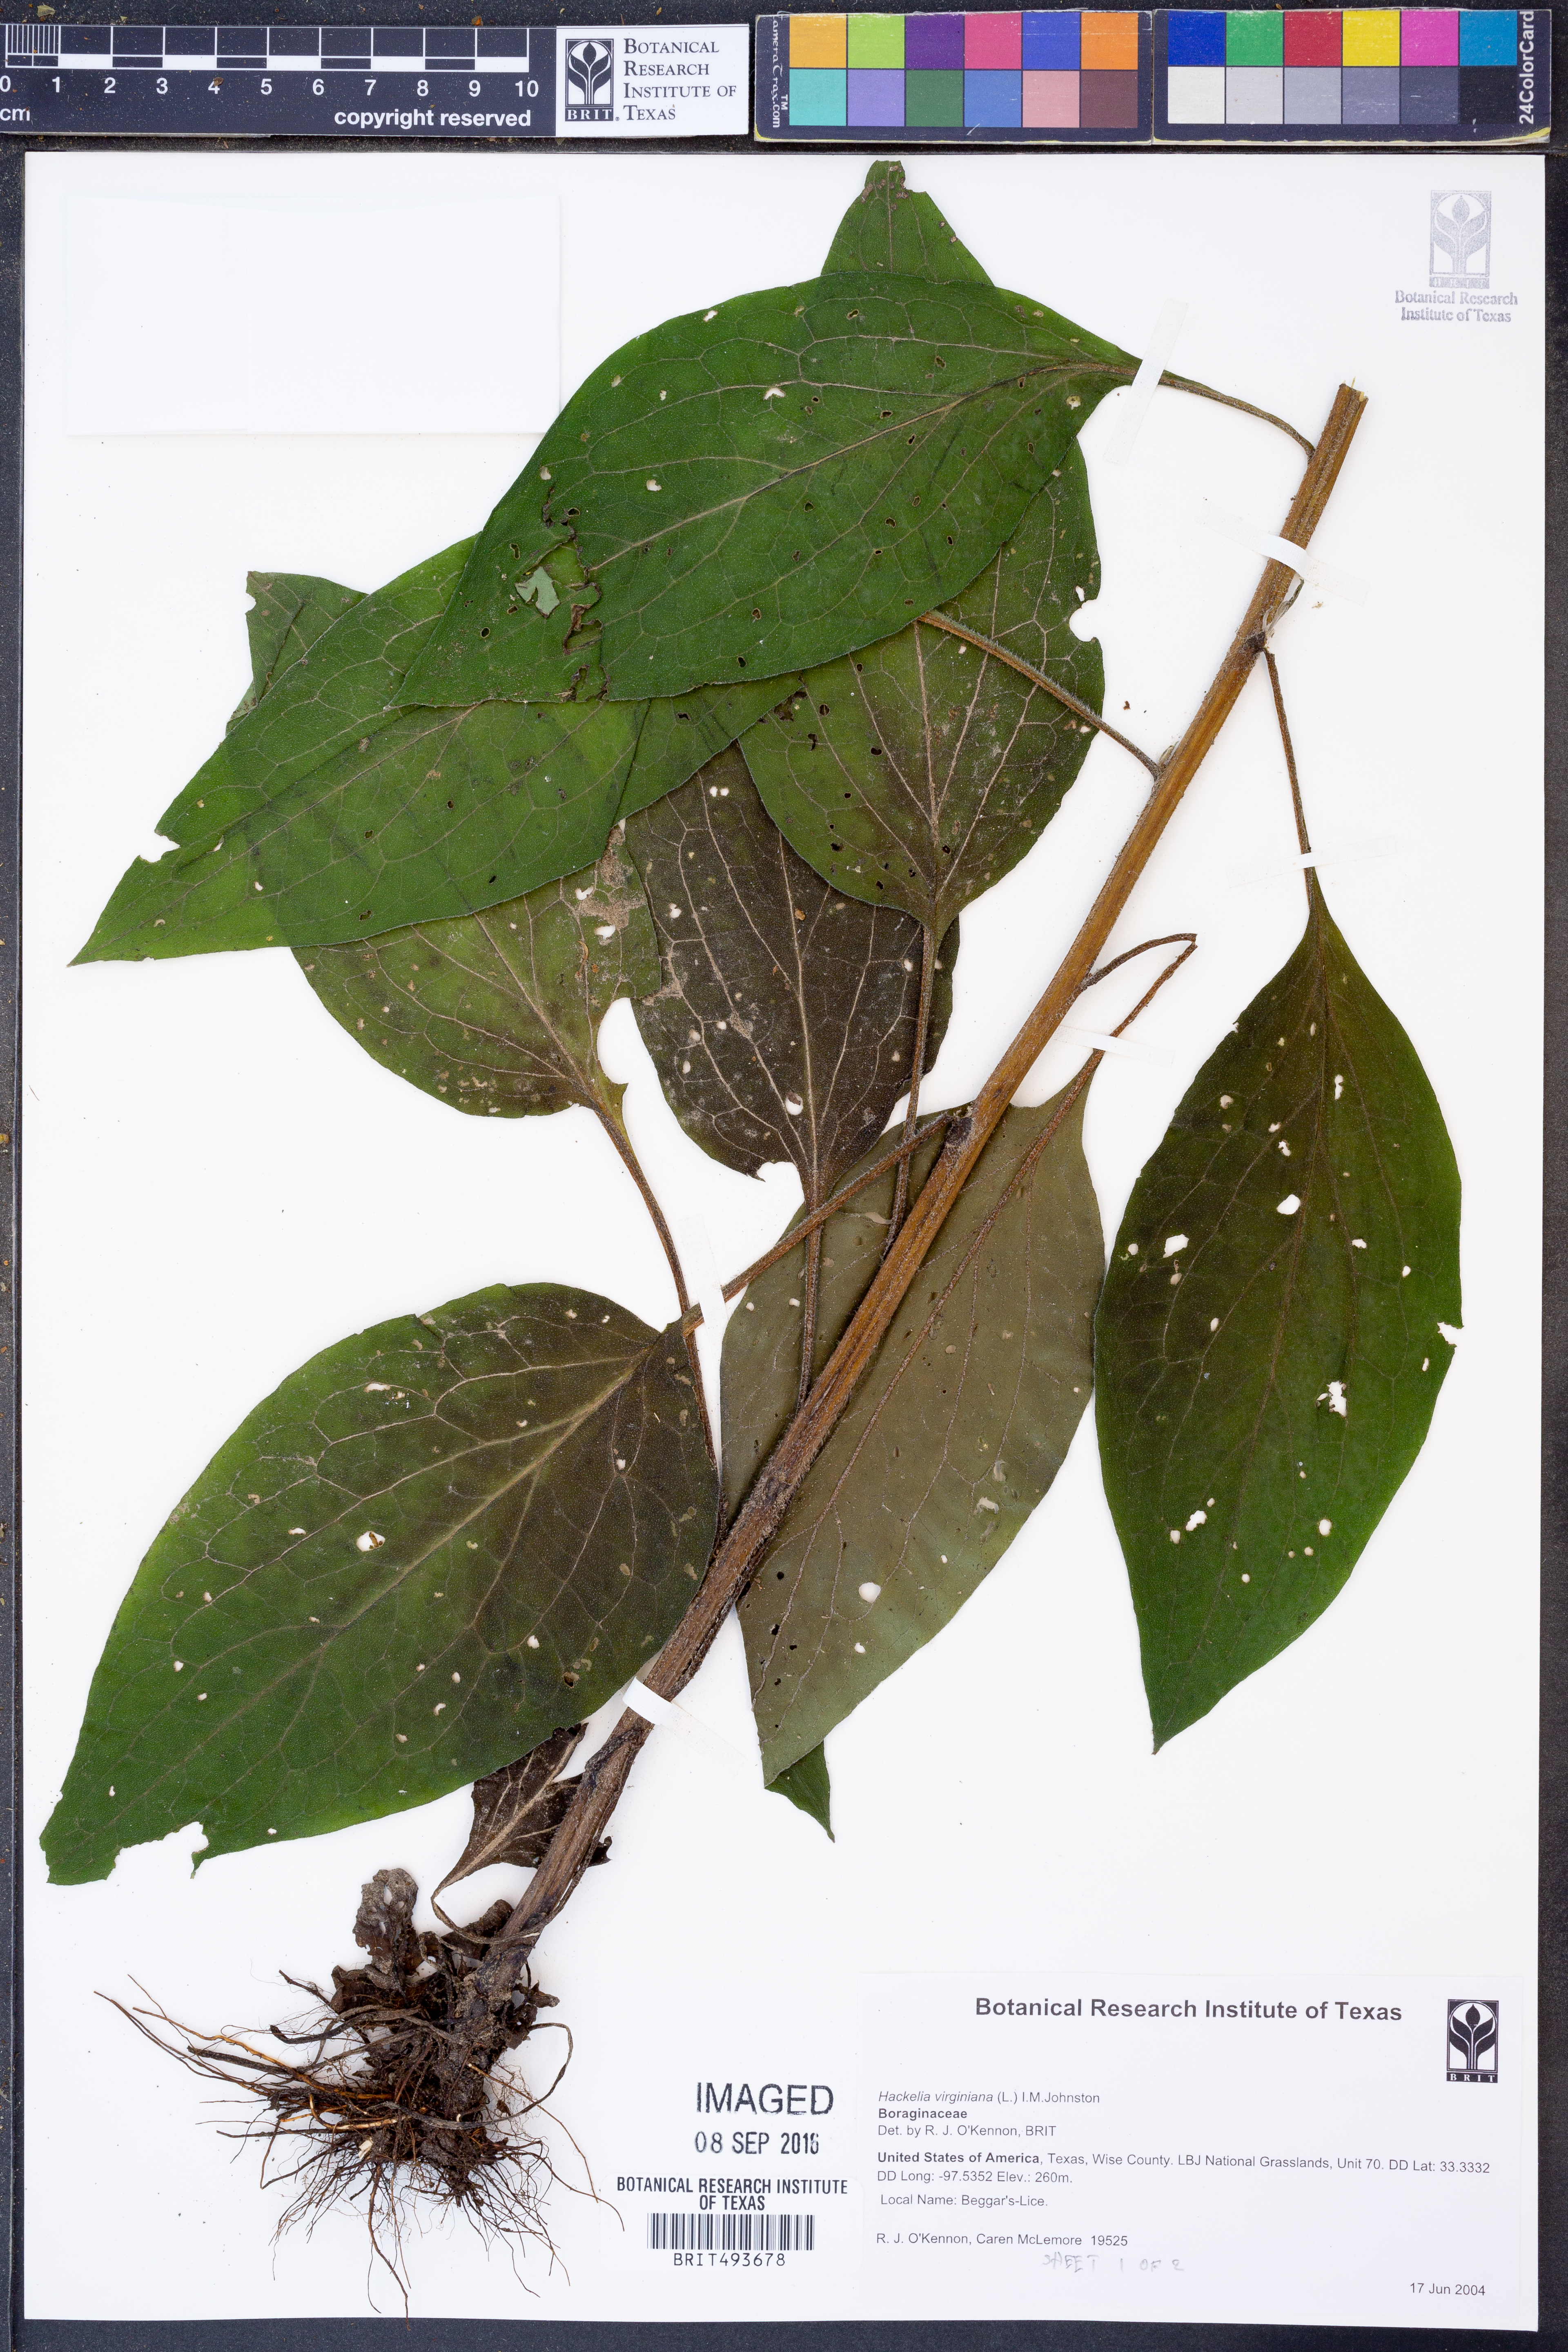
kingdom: Plantae
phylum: Tracheophyta
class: Magnoliopsida
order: Boraginales
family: Boraginaceae
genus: Hackelia
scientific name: Hackelia virginiana
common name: Beggar's-lice
